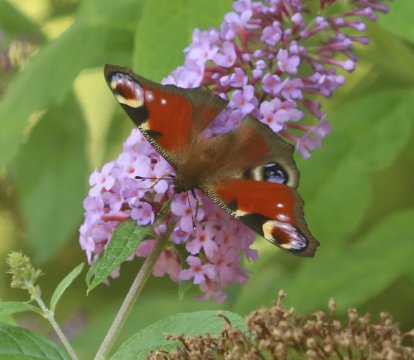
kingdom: Animalia
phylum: Arthropoda
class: Insecta
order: Lepidoptera
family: Nymphalidae
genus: Aglais
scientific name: Aglais io
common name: European Peacock
